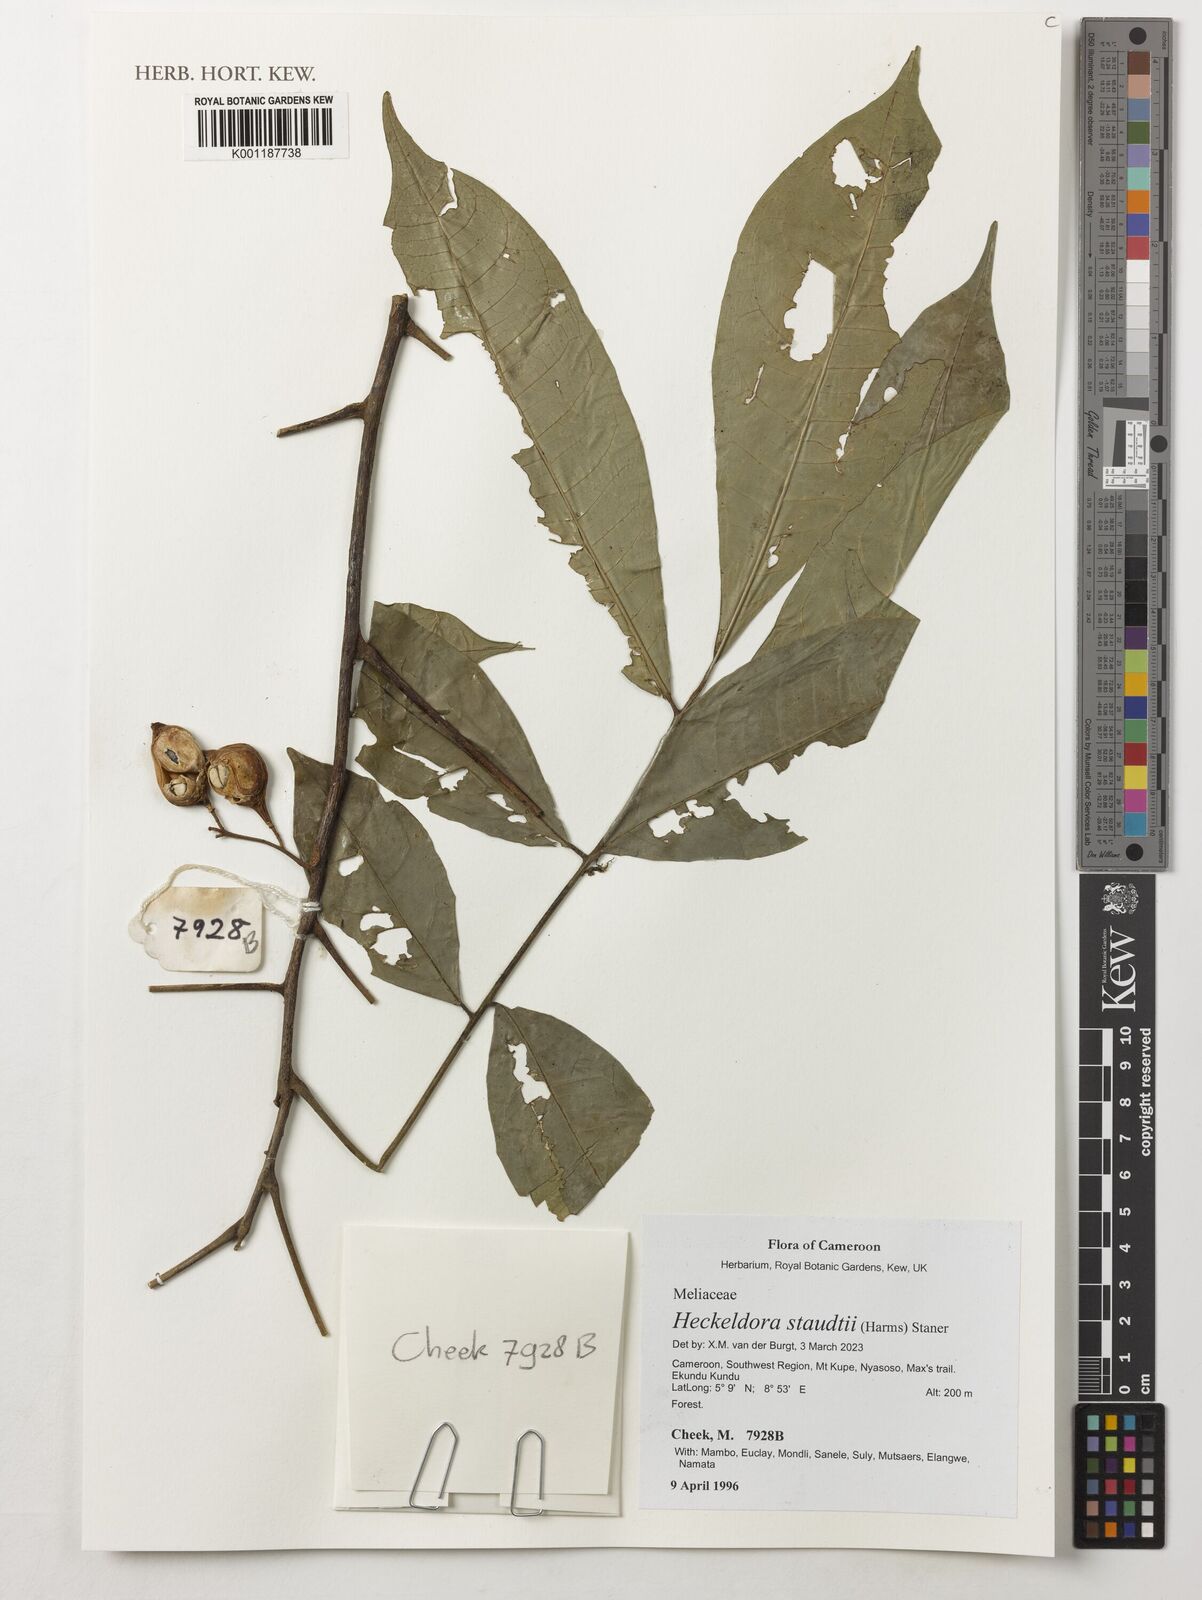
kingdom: Plantae
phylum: Tracheophyta
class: Magnoliopsida
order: Sapindales
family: Meliaceae
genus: Heckeldora
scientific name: Heckeldora staudtii
